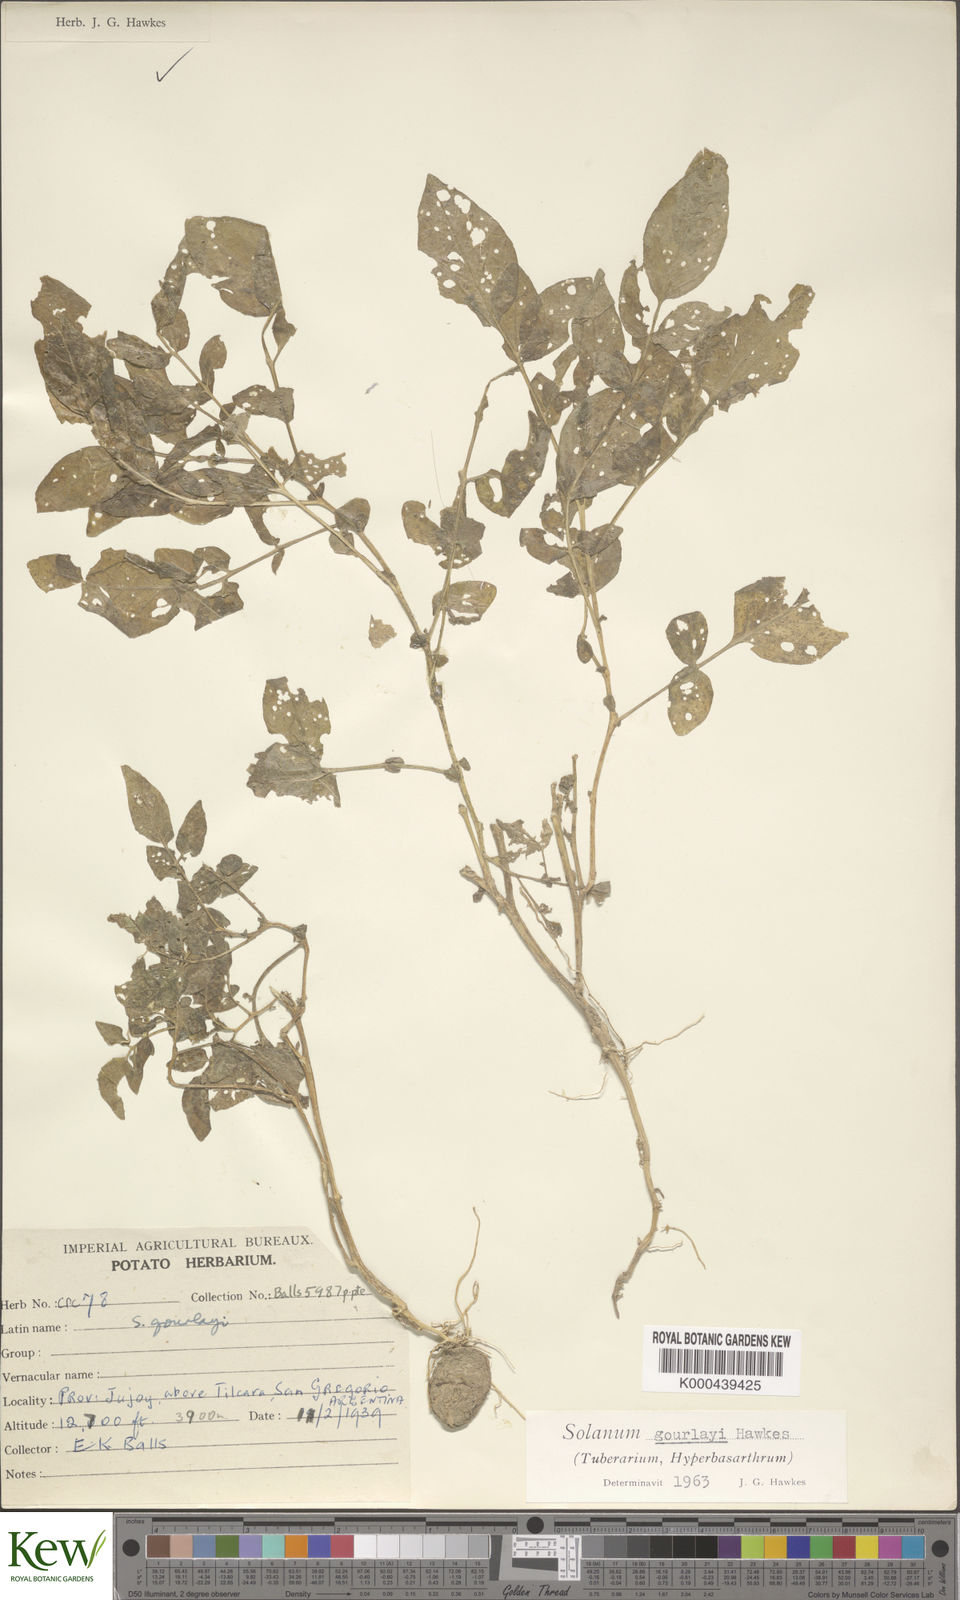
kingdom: Plantae
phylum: Tracheophyta
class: Magnoliopsida
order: Solanales
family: Solanaceae
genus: Solanum
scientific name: Solanum brevicaule
